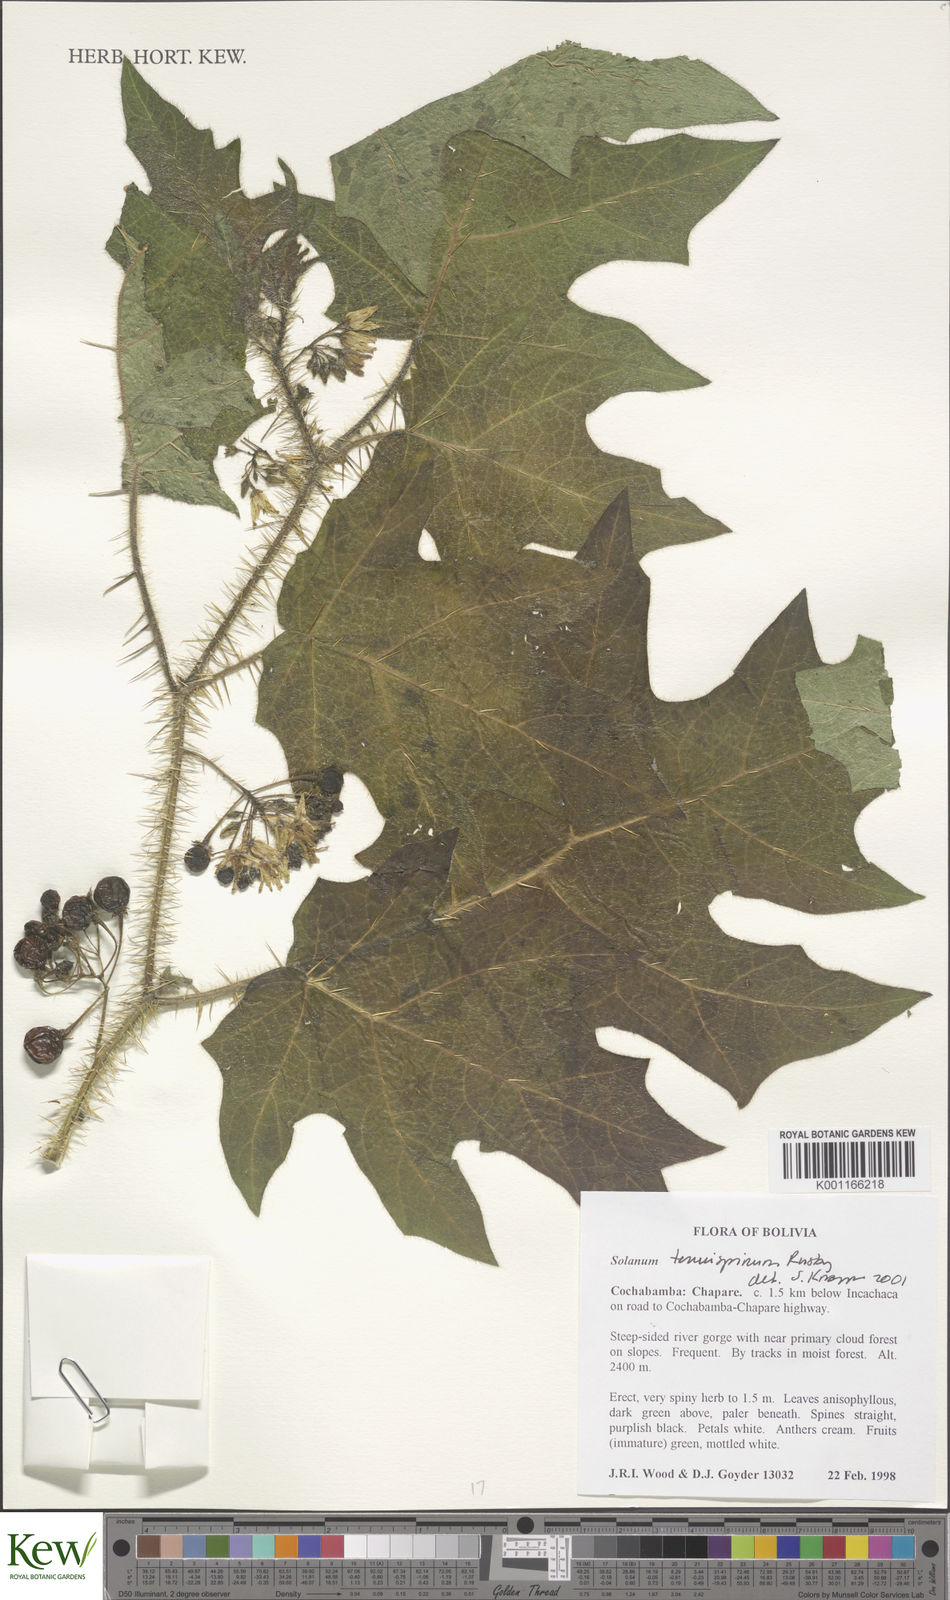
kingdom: Plantae
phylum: Tracheophyta
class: Magnoliopsida
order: Solanales
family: Solanaceae
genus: Solanum
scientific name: Solanum tenuispinum
